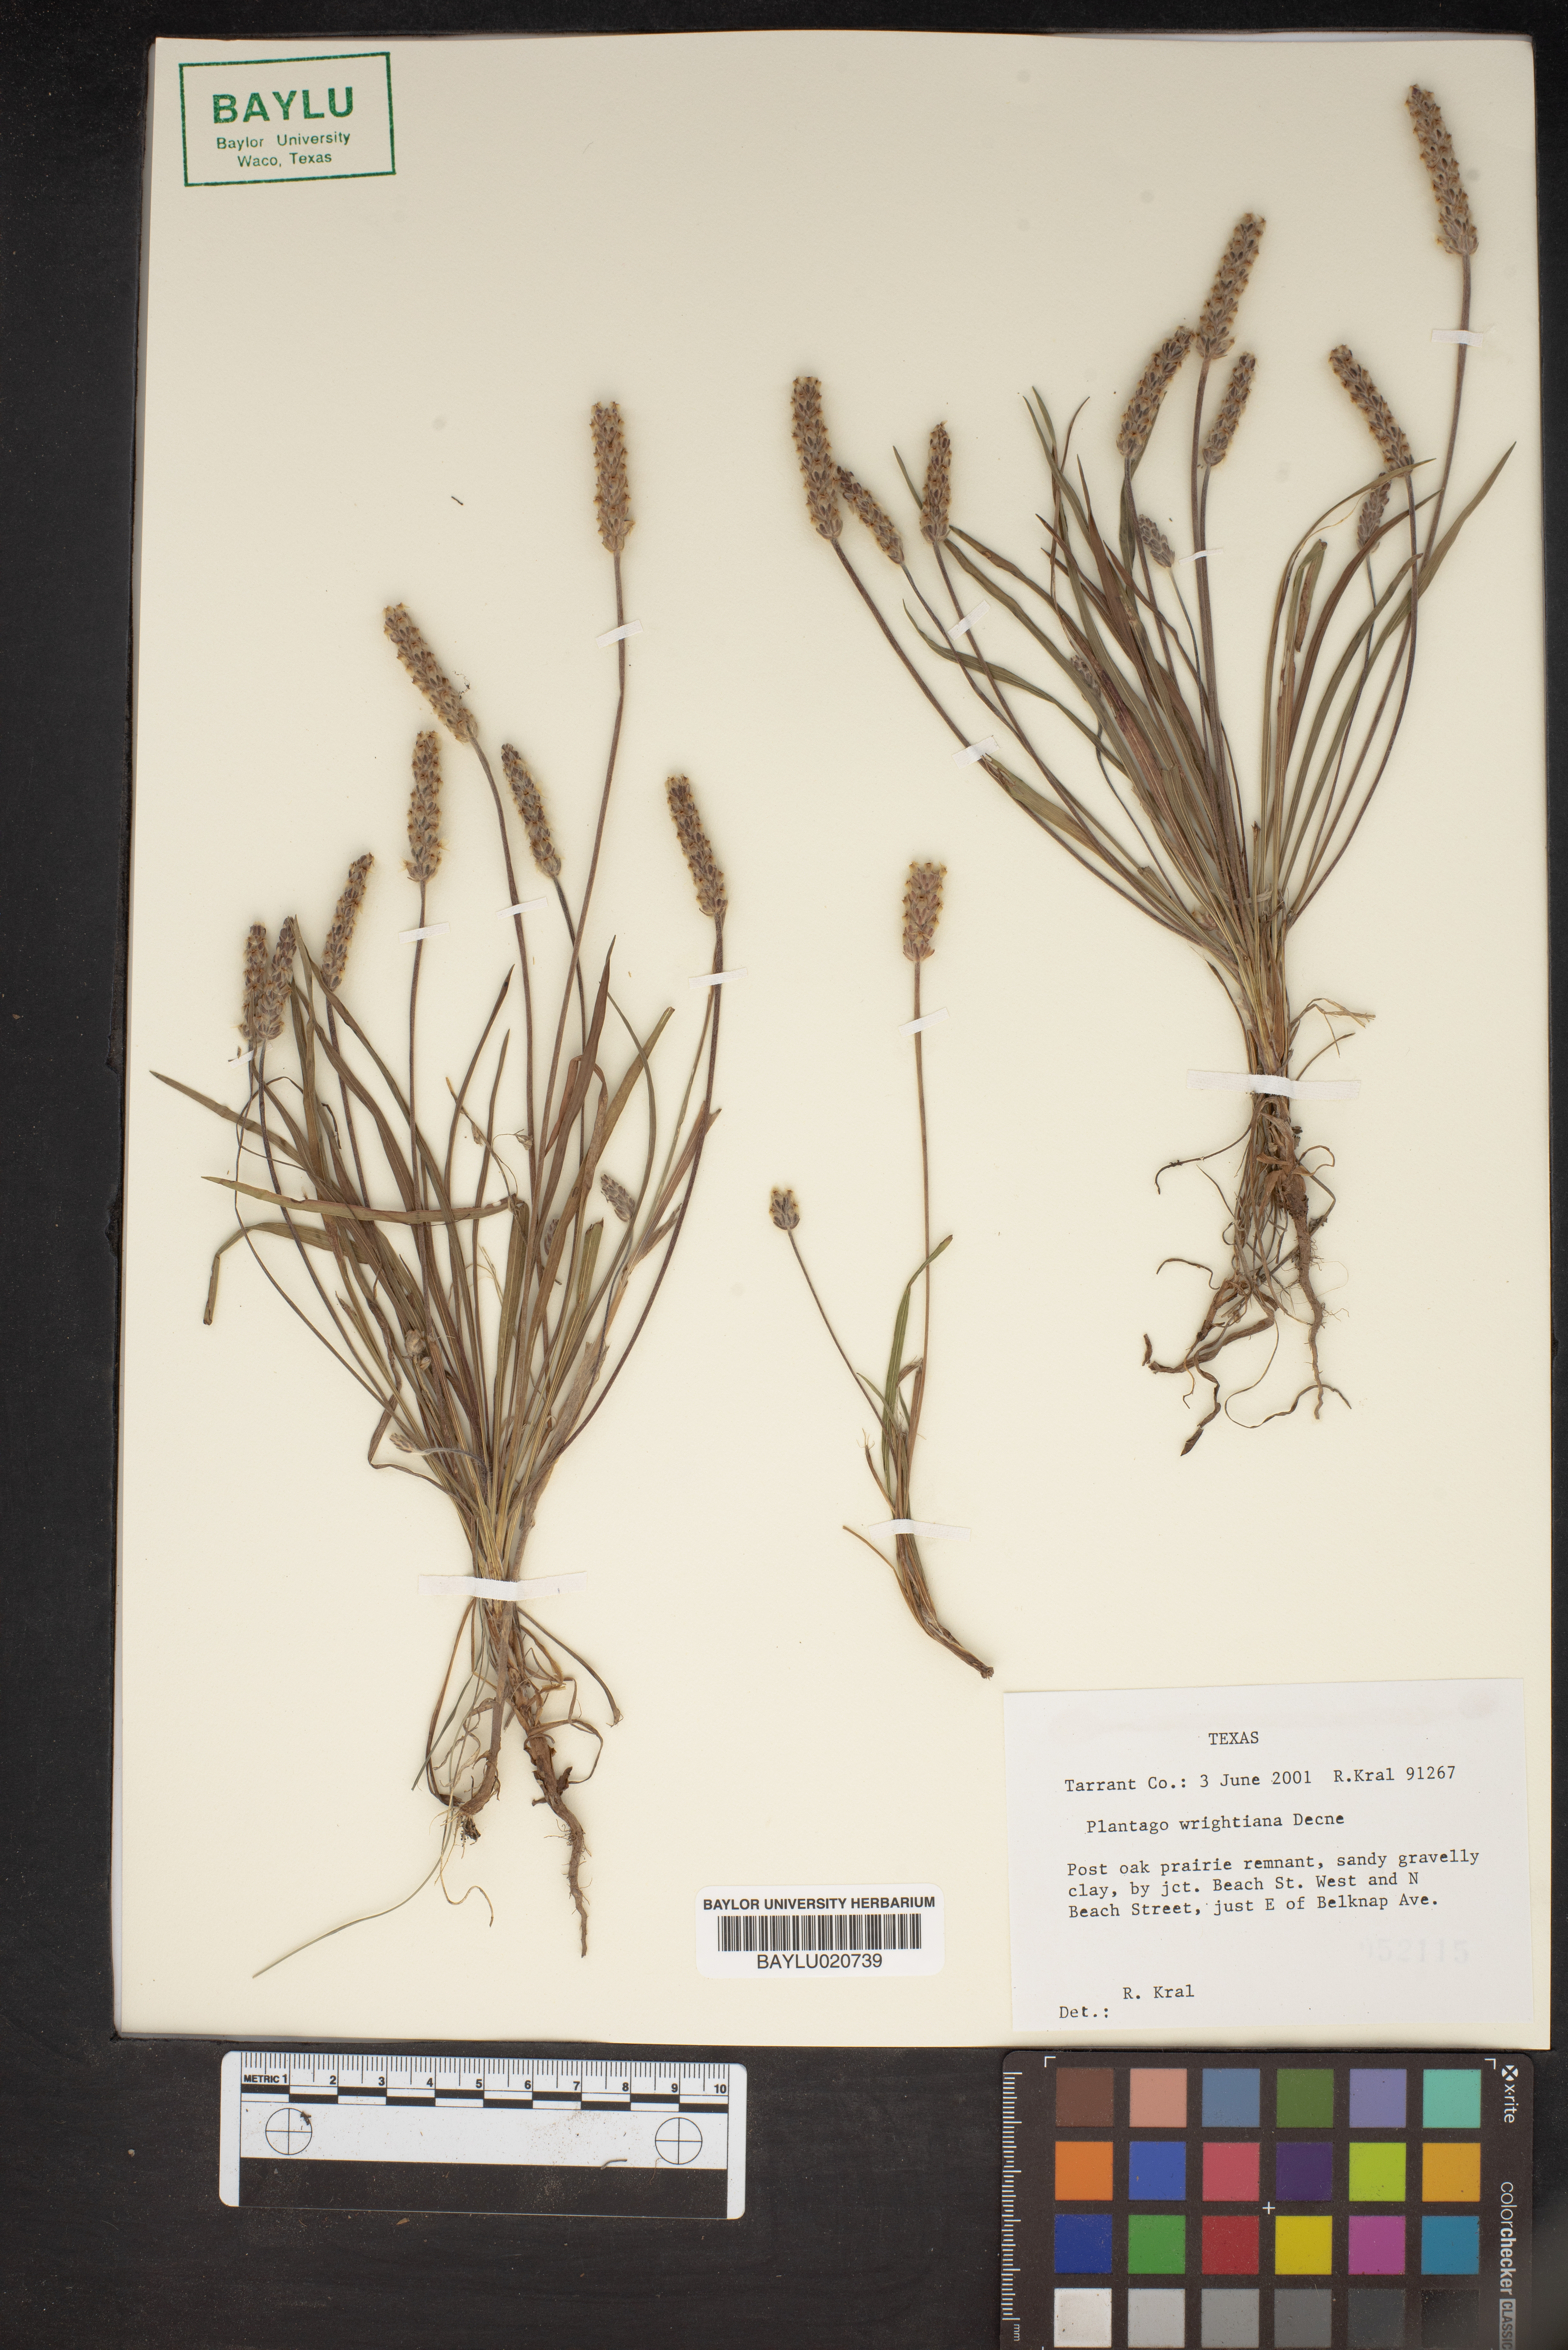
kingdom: Plantae
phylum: Tracheophyta
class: Magnoliopsida
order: Lamiales
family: Plantaginaceae
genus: Plantago
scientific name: Plantago wrightiana
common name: Wright's plantain
